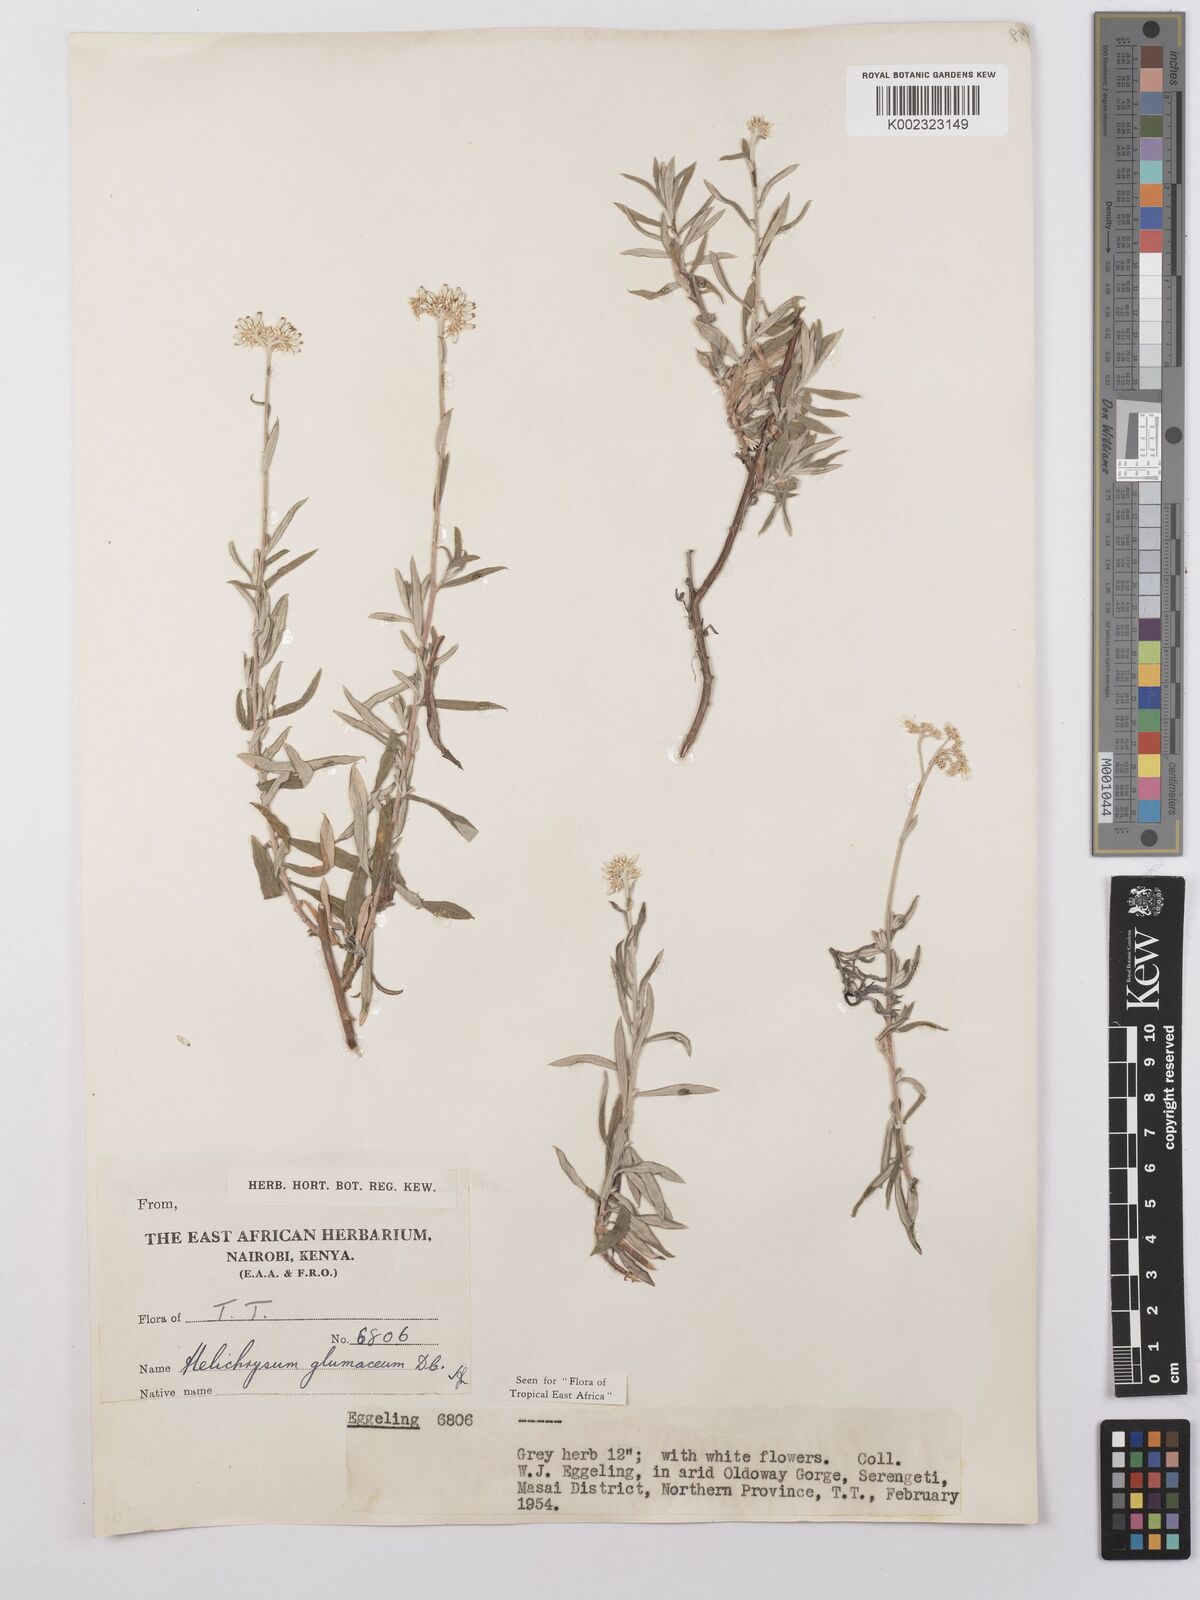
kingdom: Plantae
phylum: Tracheophyta
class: Magnoliopsida
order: Asterales
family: Asteraceae
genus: Helichrysum
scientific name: Helichrysum glumaceum
